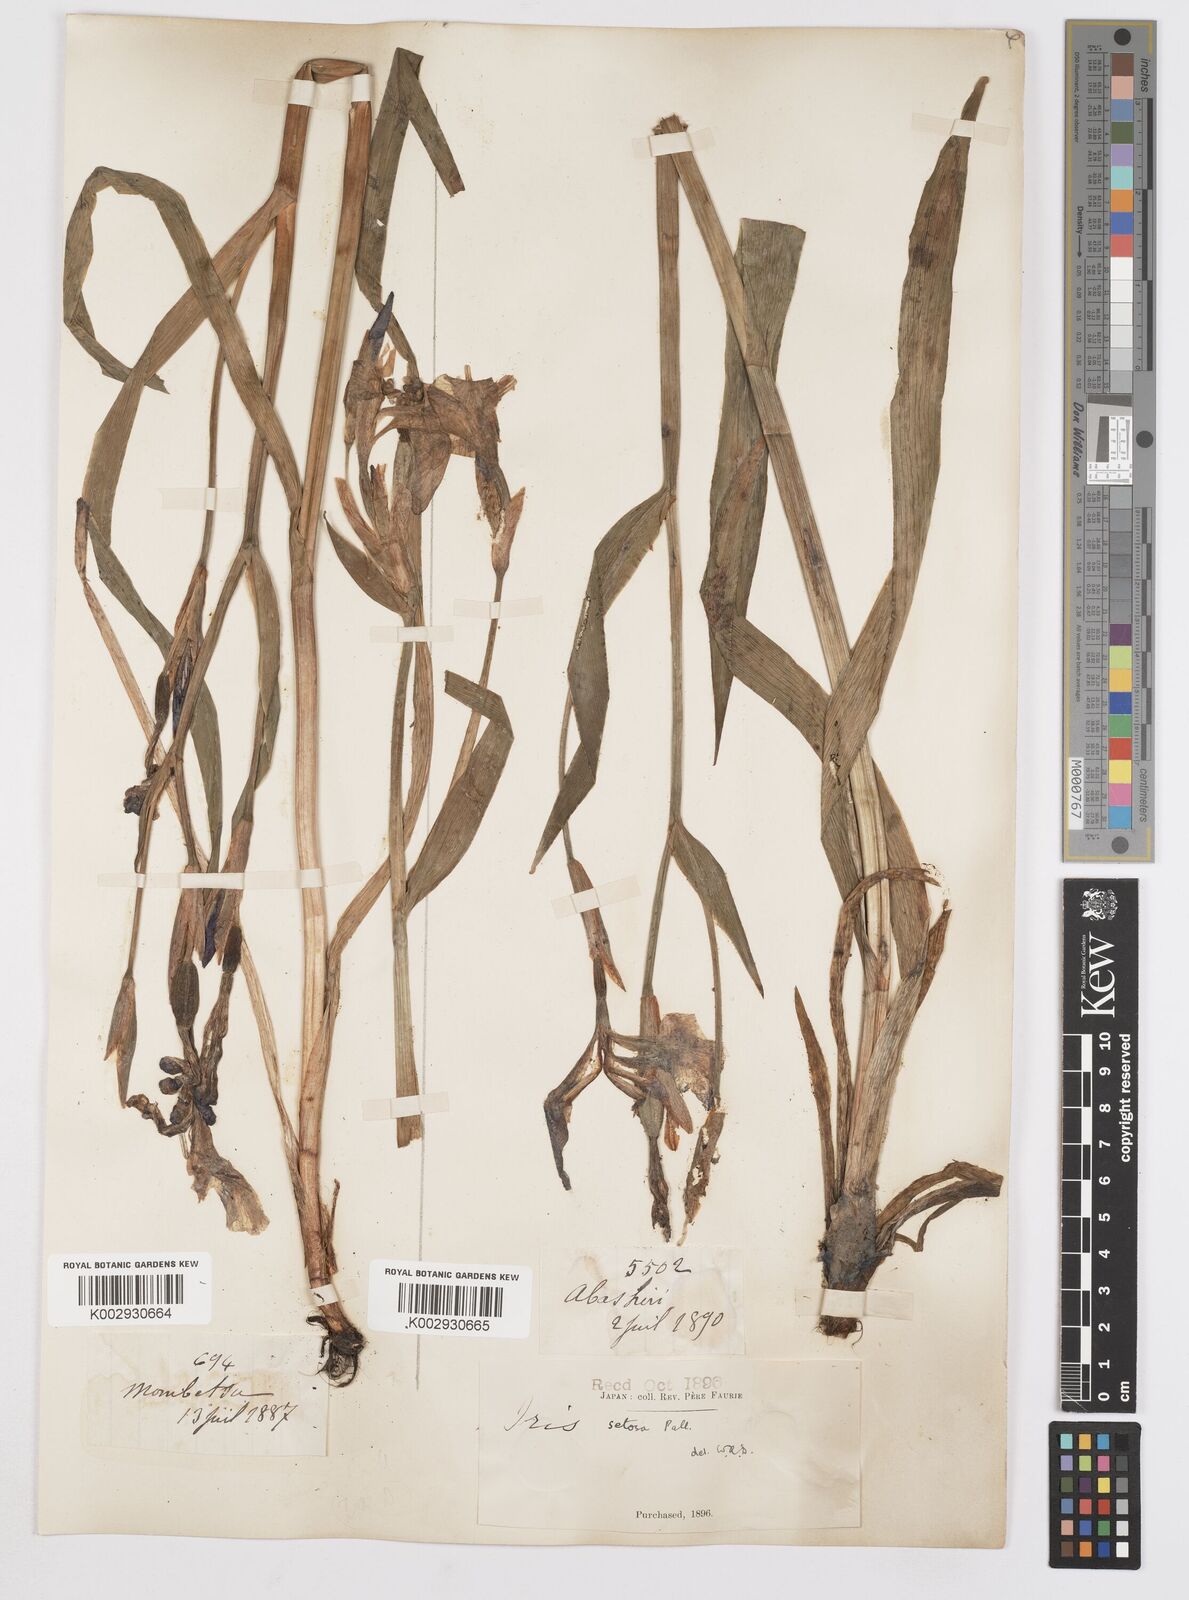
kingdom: Plantae
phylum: Tracheophyta
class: Liliopsida
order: Asparagales
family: Iridaceae
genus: Iris
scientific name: Iris setosa
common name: Arctic blue flag
